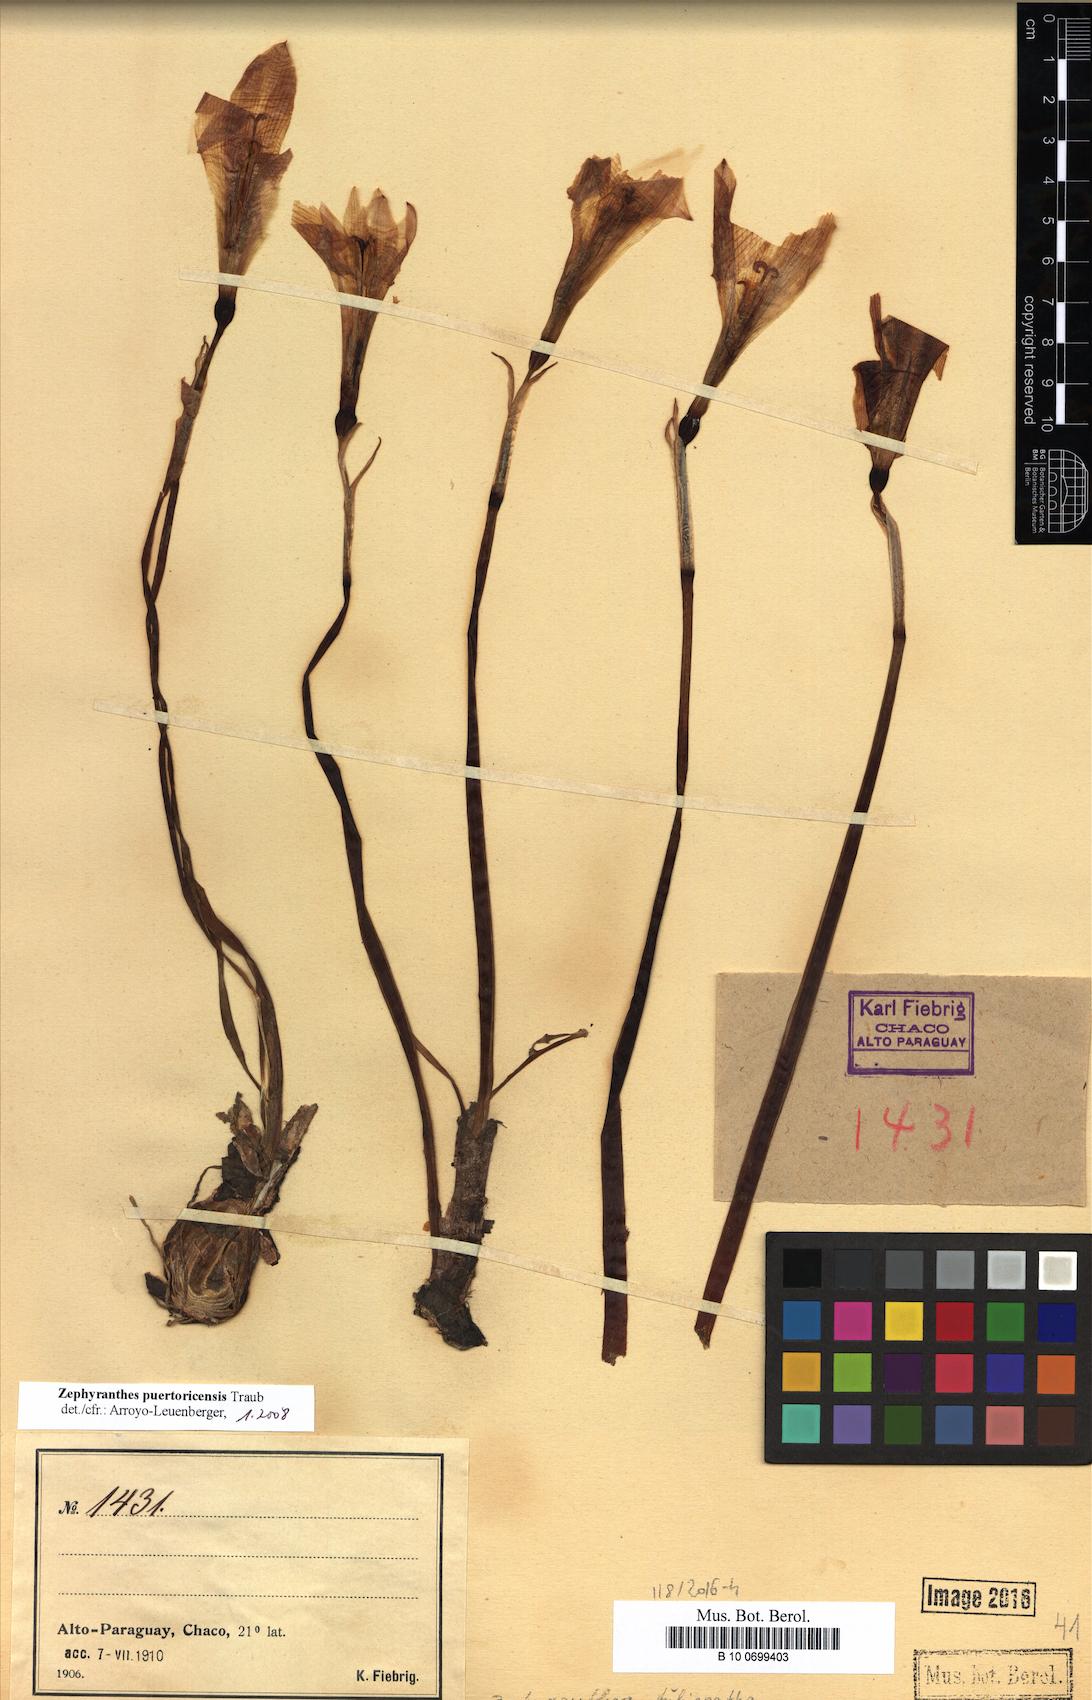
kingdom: Plantae
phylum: Tracheophyta
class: Liliopsida
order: Asparagales
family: Amaryllidaceae
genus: Zephyranthes
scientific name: Zephyranthes puertoricensis
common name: White snowdrop
